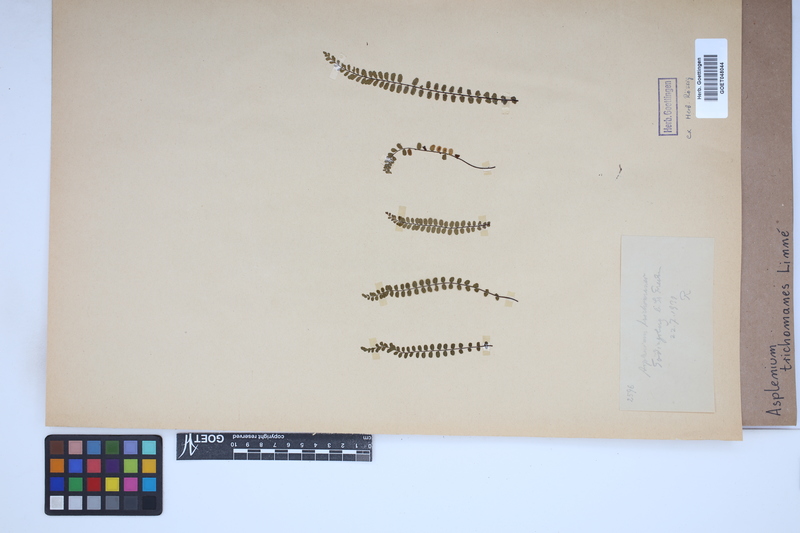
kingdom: Plantae
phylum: Tracheophyta
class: Polypodiopsida
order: Polypodiales
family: Aspleniaceae
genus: Asplenium
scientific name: Asplenium trichomanes
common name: Maidenhair spleenwort
